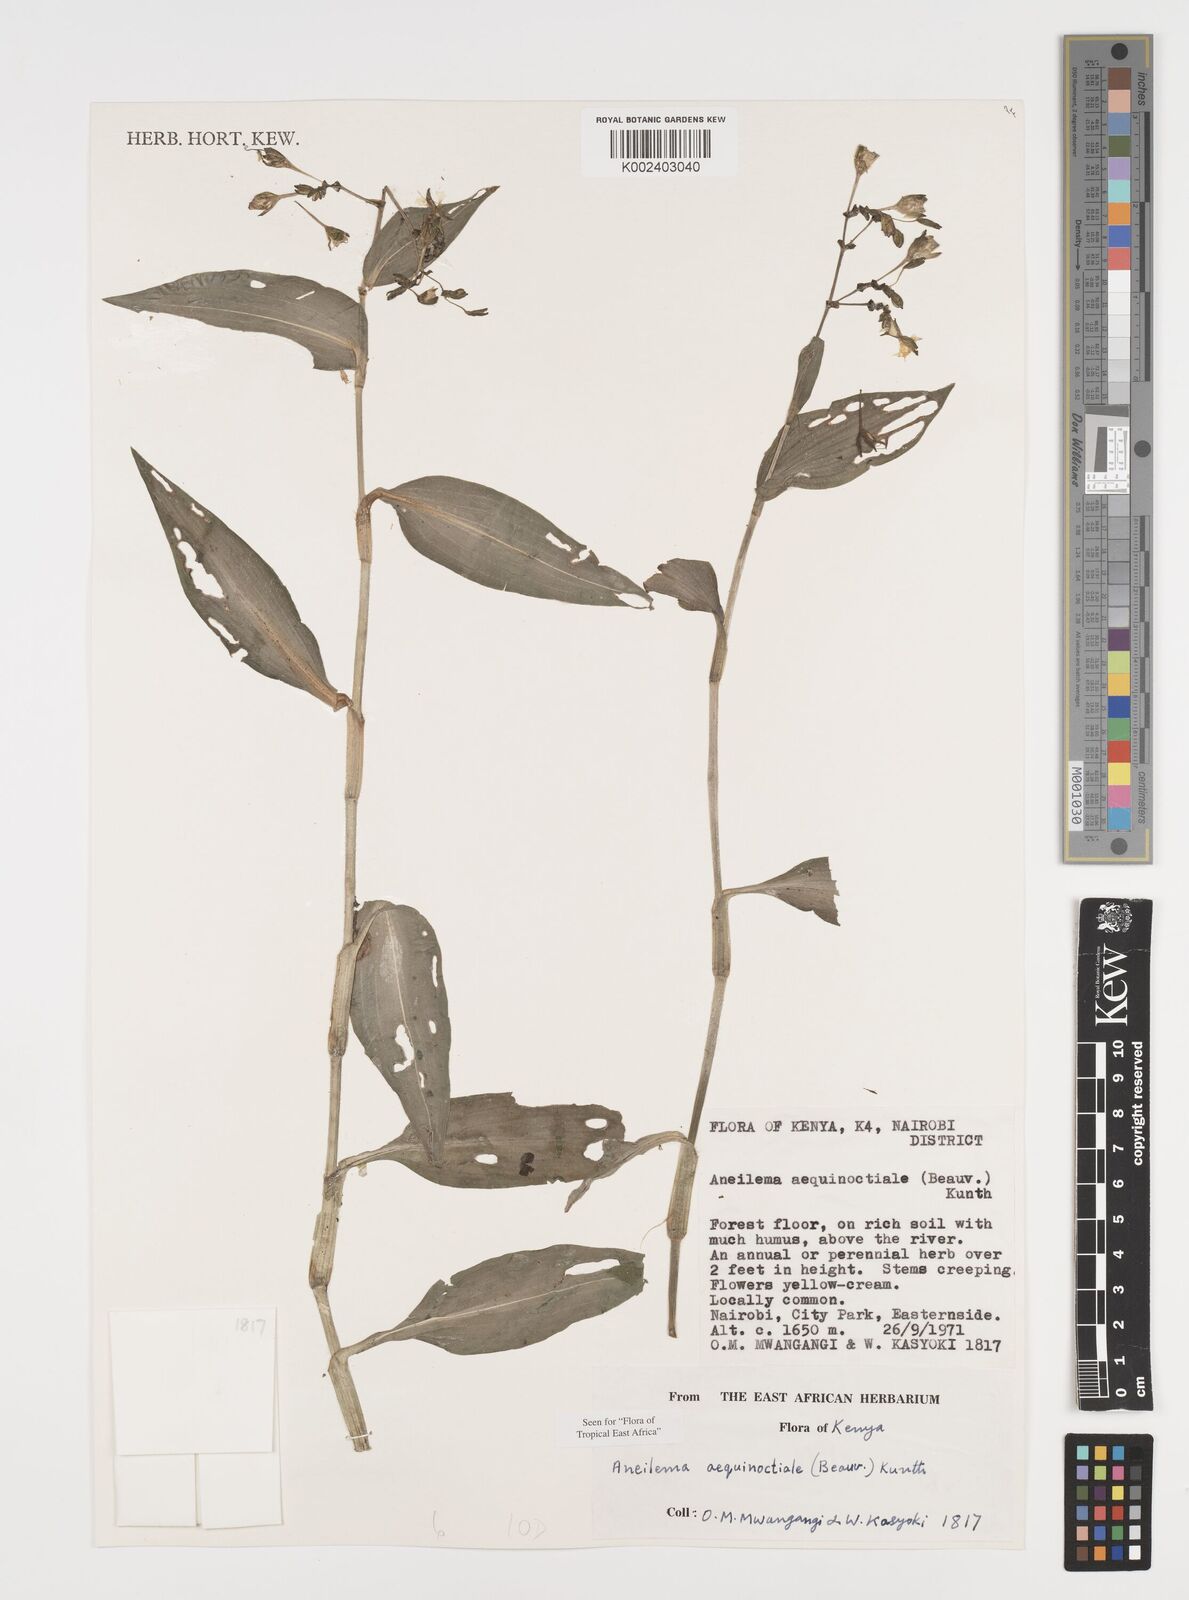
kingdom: Plantae
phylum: Tracheophyta
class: Liliopsida
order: Commelinales
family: Commelinaceae
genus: Aneilema
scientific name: Aneilema aequinoctiale
